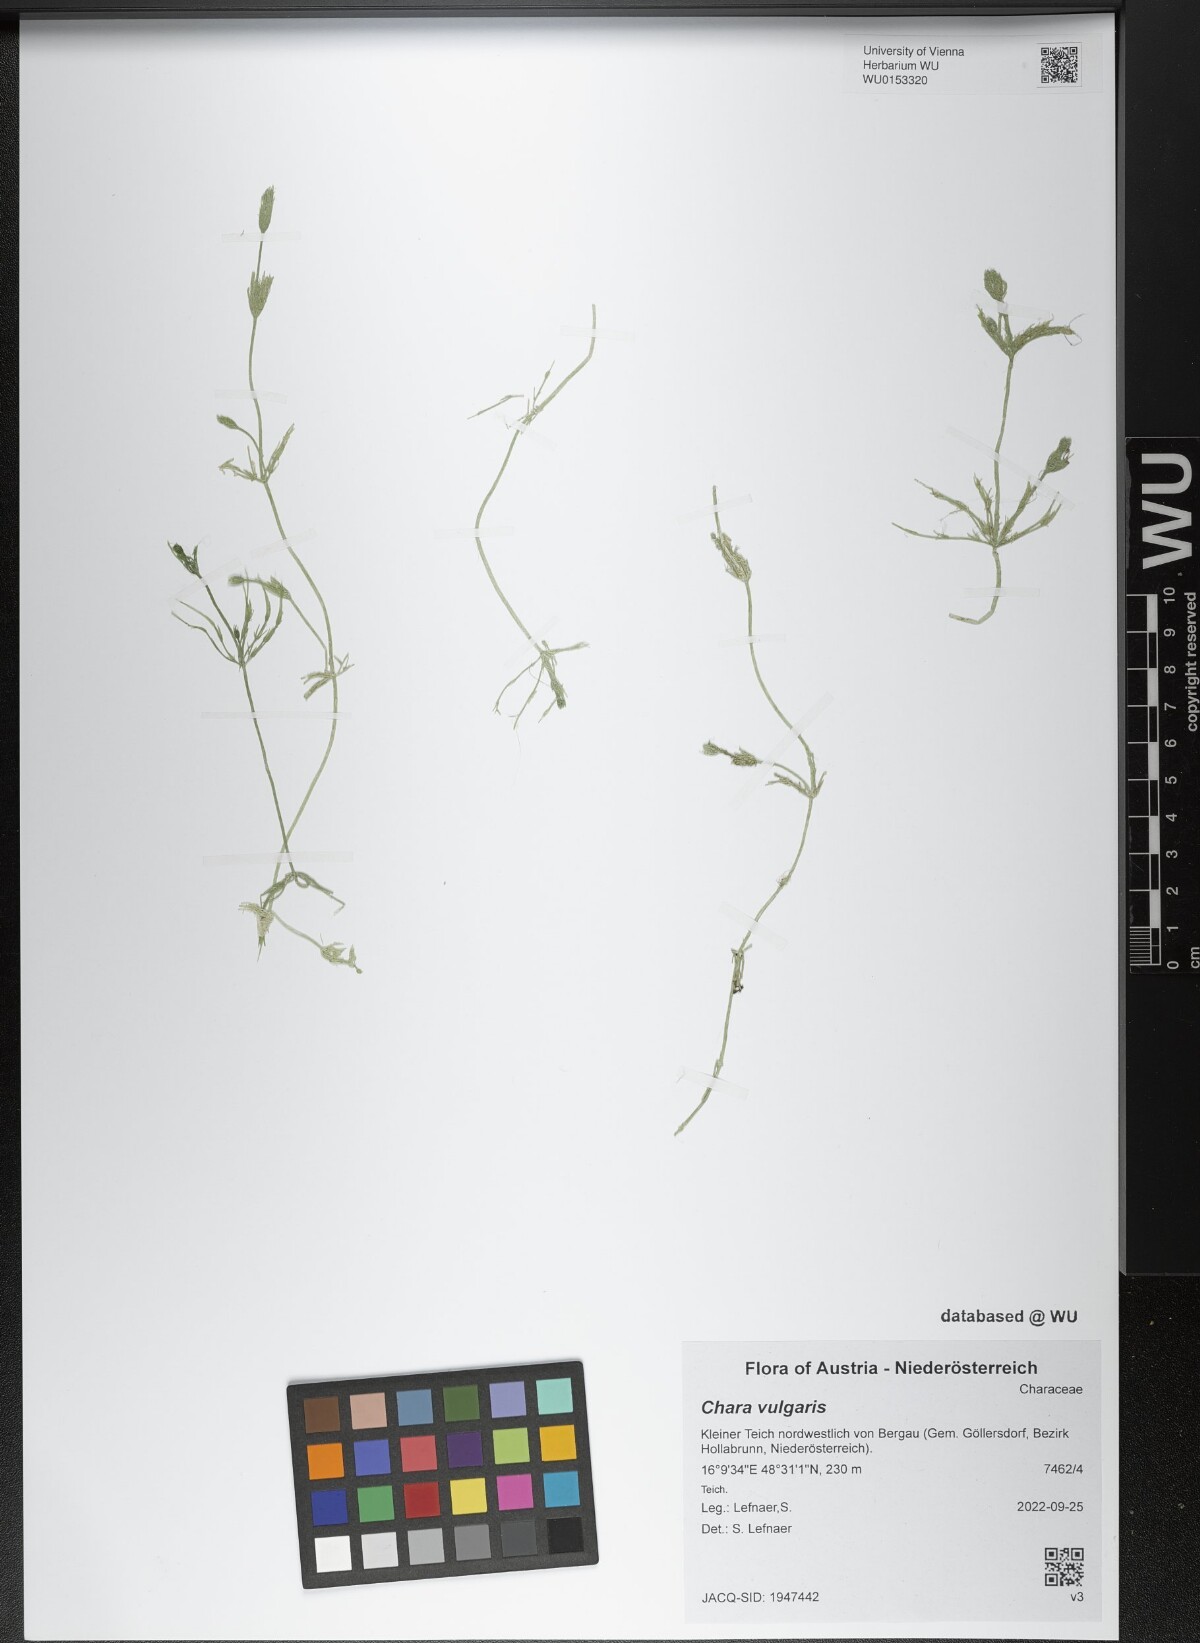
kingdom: Plantae
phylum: Charophyta
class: Charophyceae
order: Charales
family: Characeae
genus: Chara
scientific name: Chara vulgaris
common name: Common stonewort
